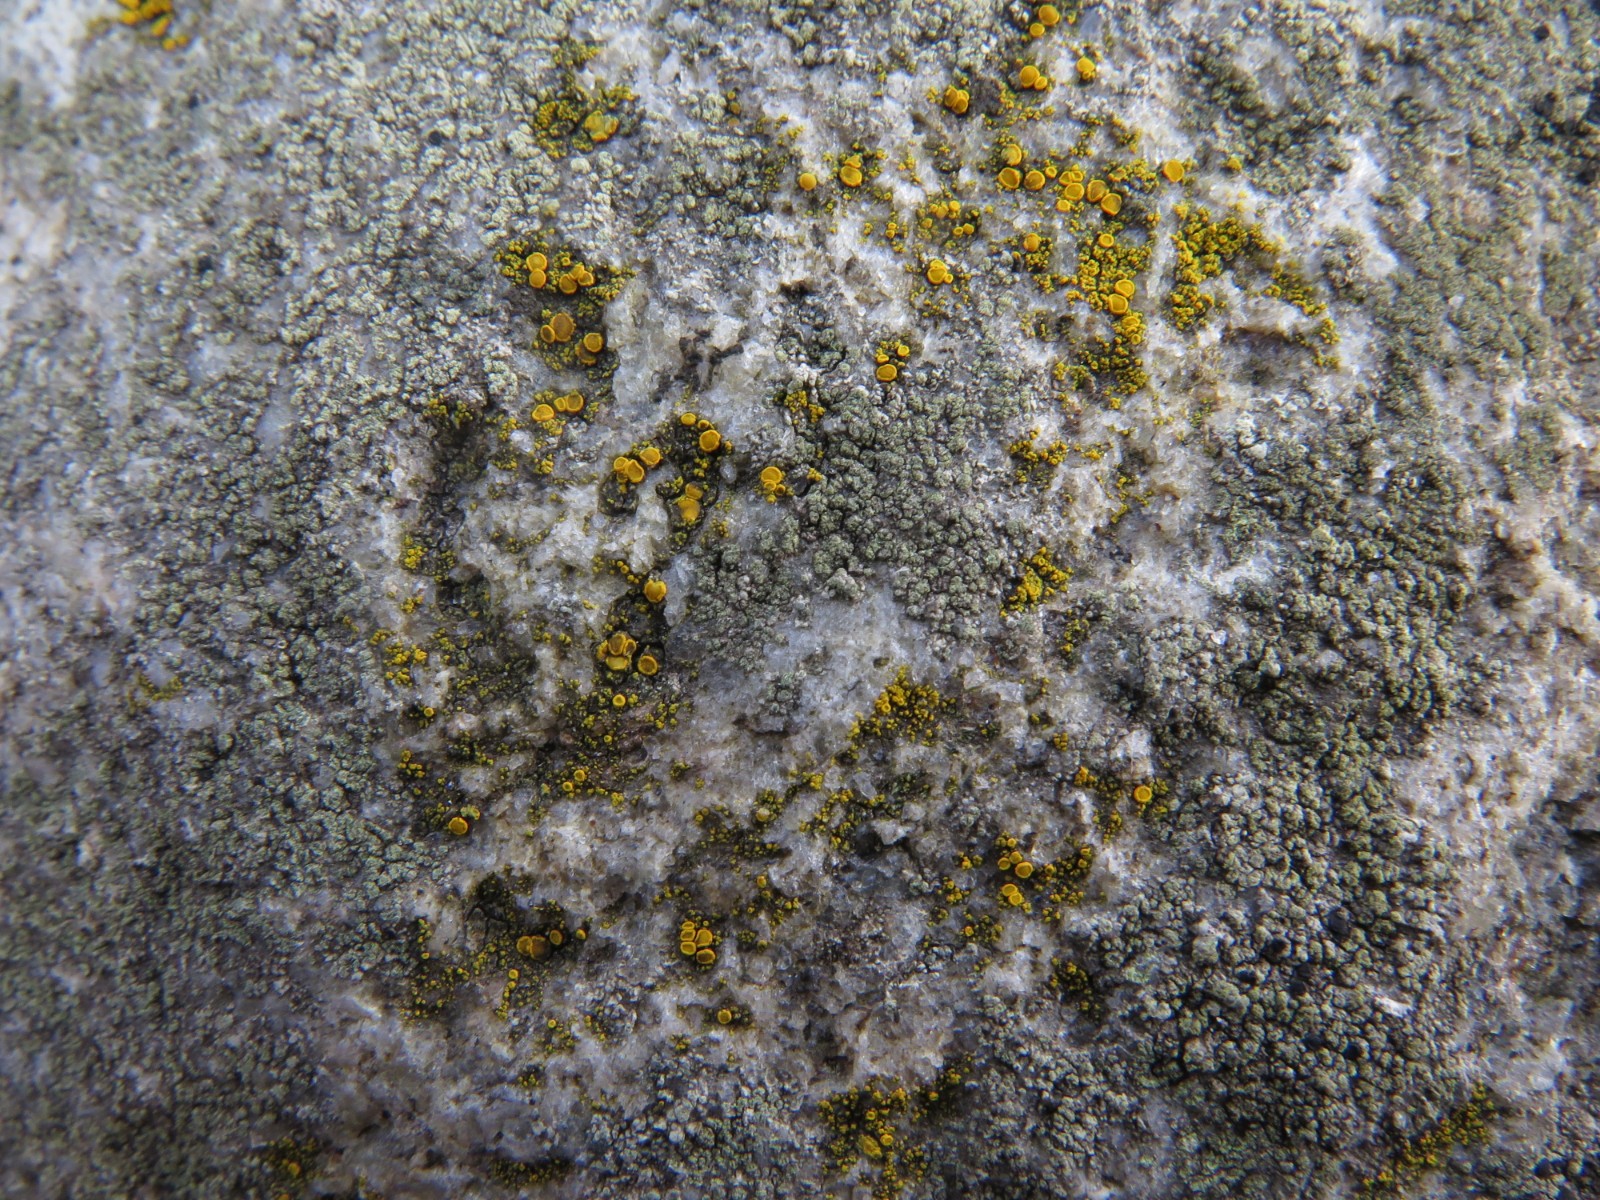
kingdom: Fungi
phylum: Ascomycota
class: Candelariomycetes
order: Candelariales
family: Candelariaceae
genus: Candelariella
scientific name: Candelariella vitellina
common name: almindelig æggeblommelav
